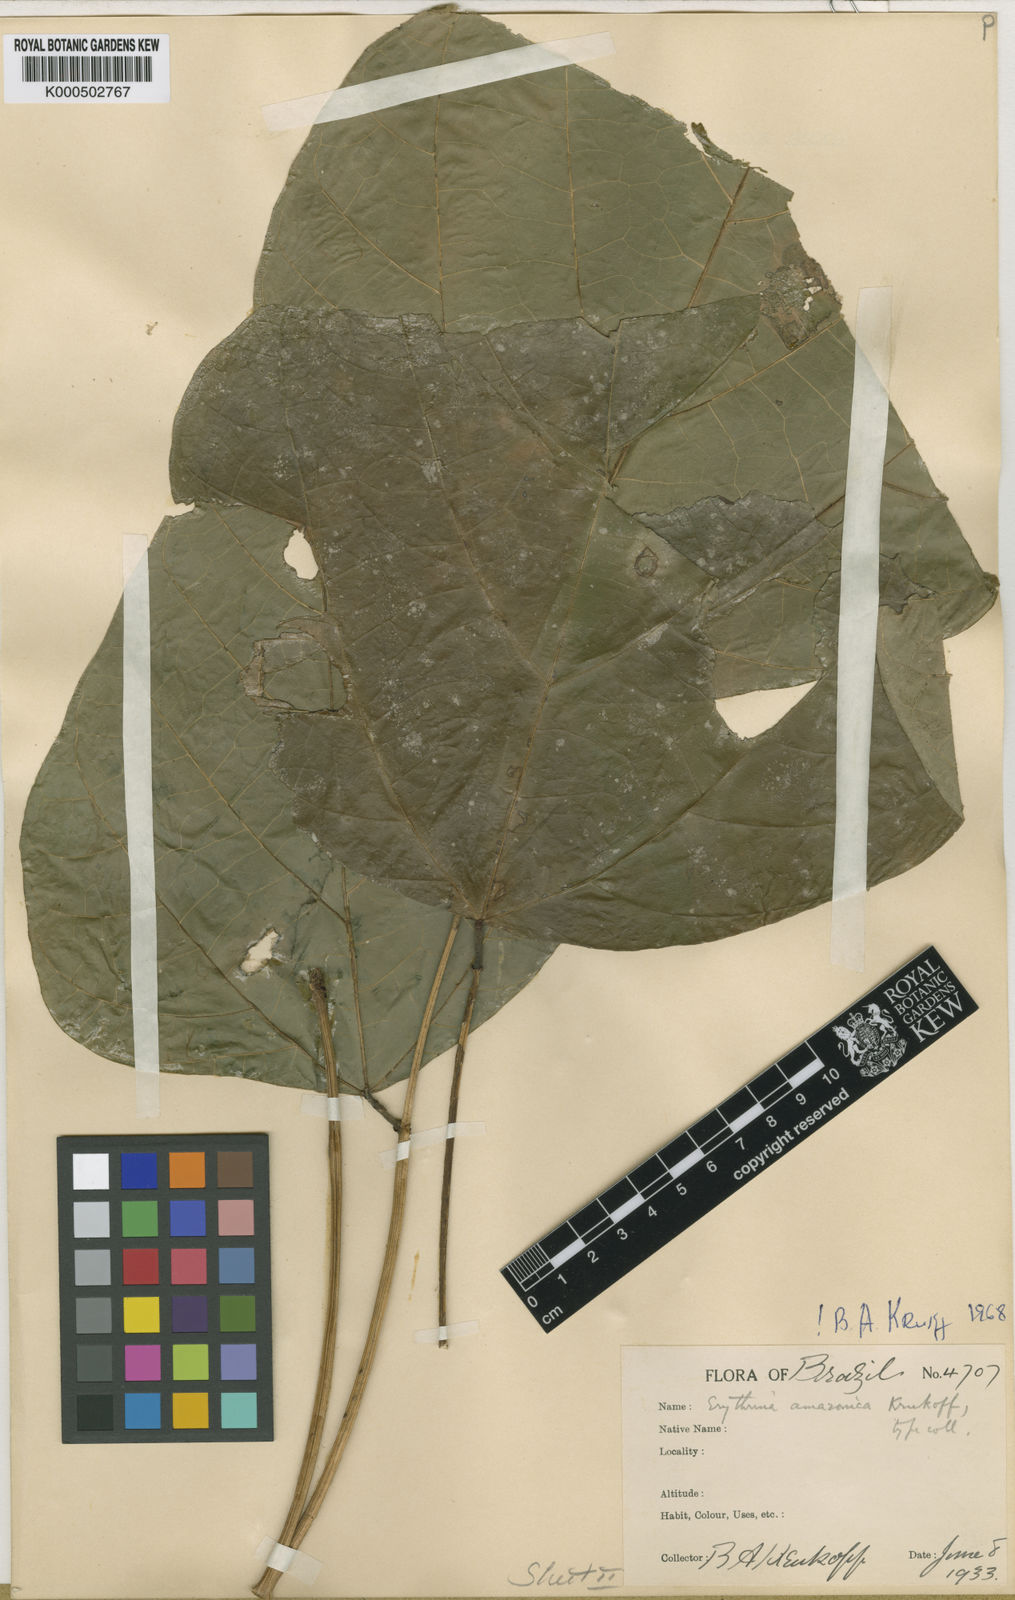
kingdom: Plantae
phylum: Tracheophyta
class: Magnoliopsida
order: Fabales
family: Fabaceae
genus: Erythrina
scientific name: Erythrina amazonica
